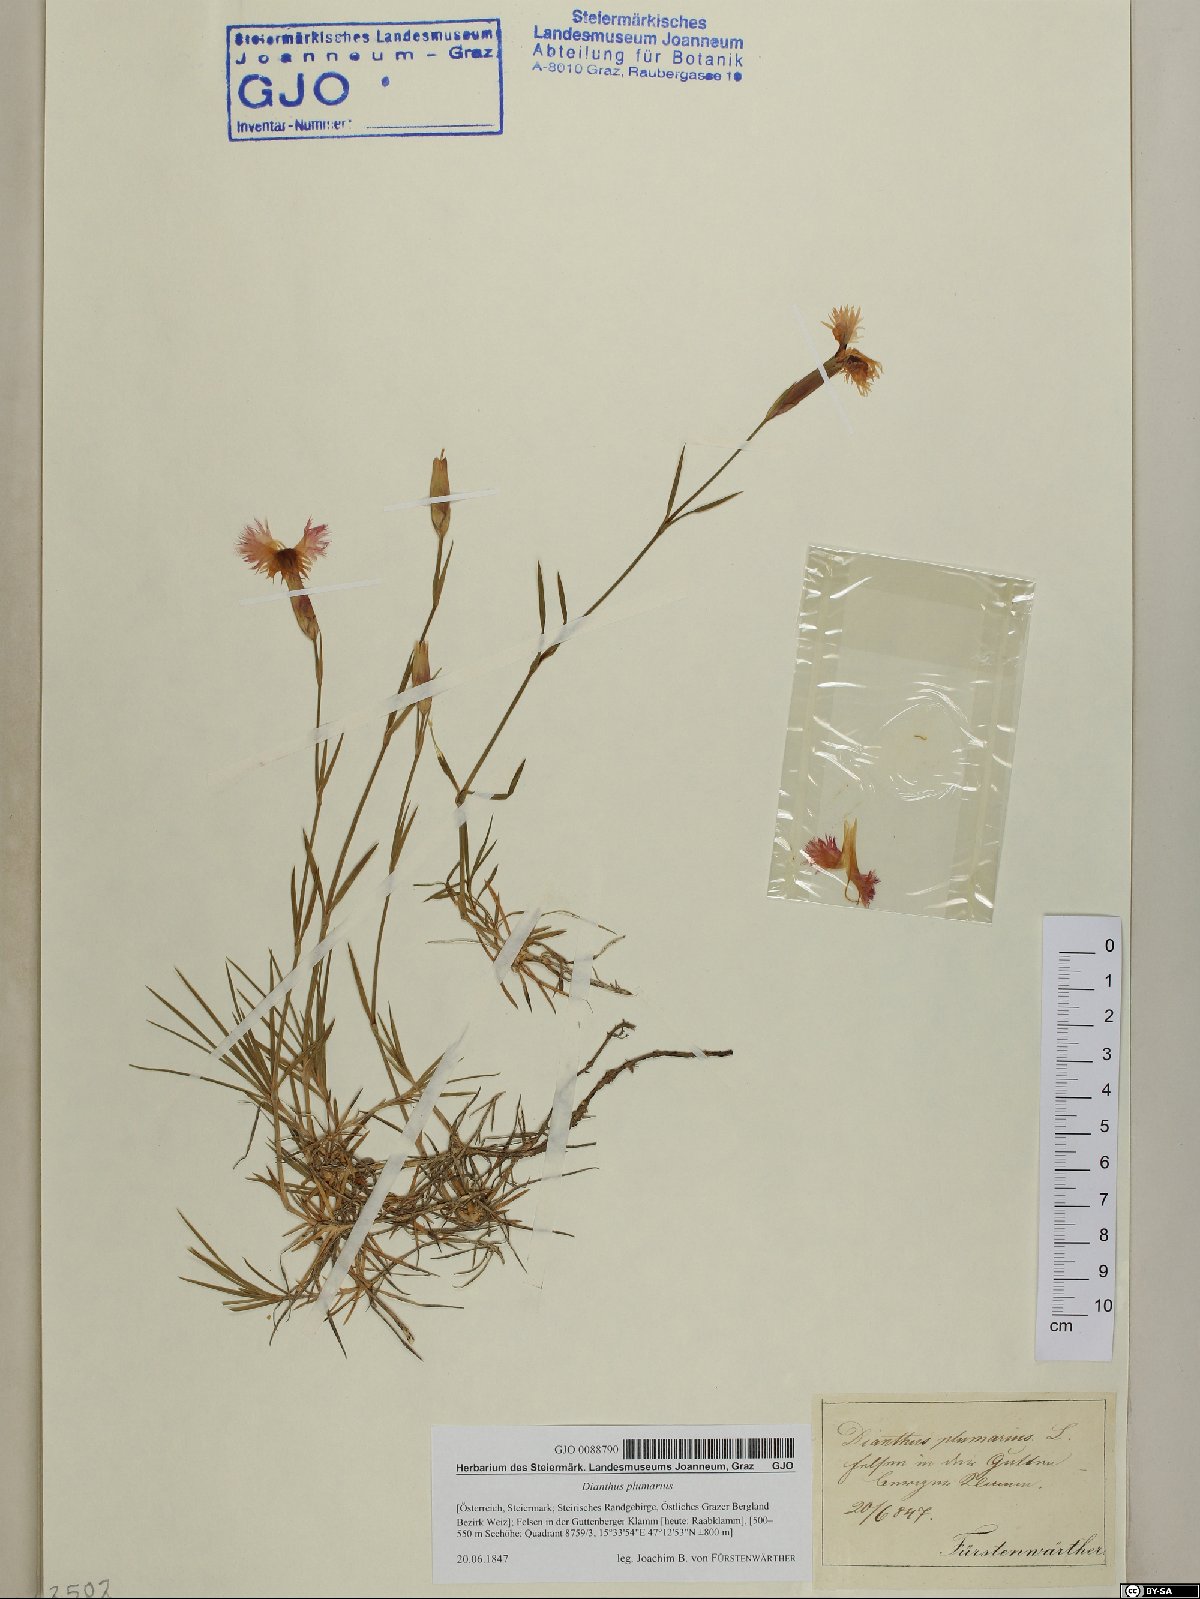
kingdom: Plantae
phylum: Tracheophyta
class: Magnoliopsida
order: Caryophyllales
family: Caryophyllaceae
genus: Dianthus
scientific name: Dianthus plumarius
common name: Pink
